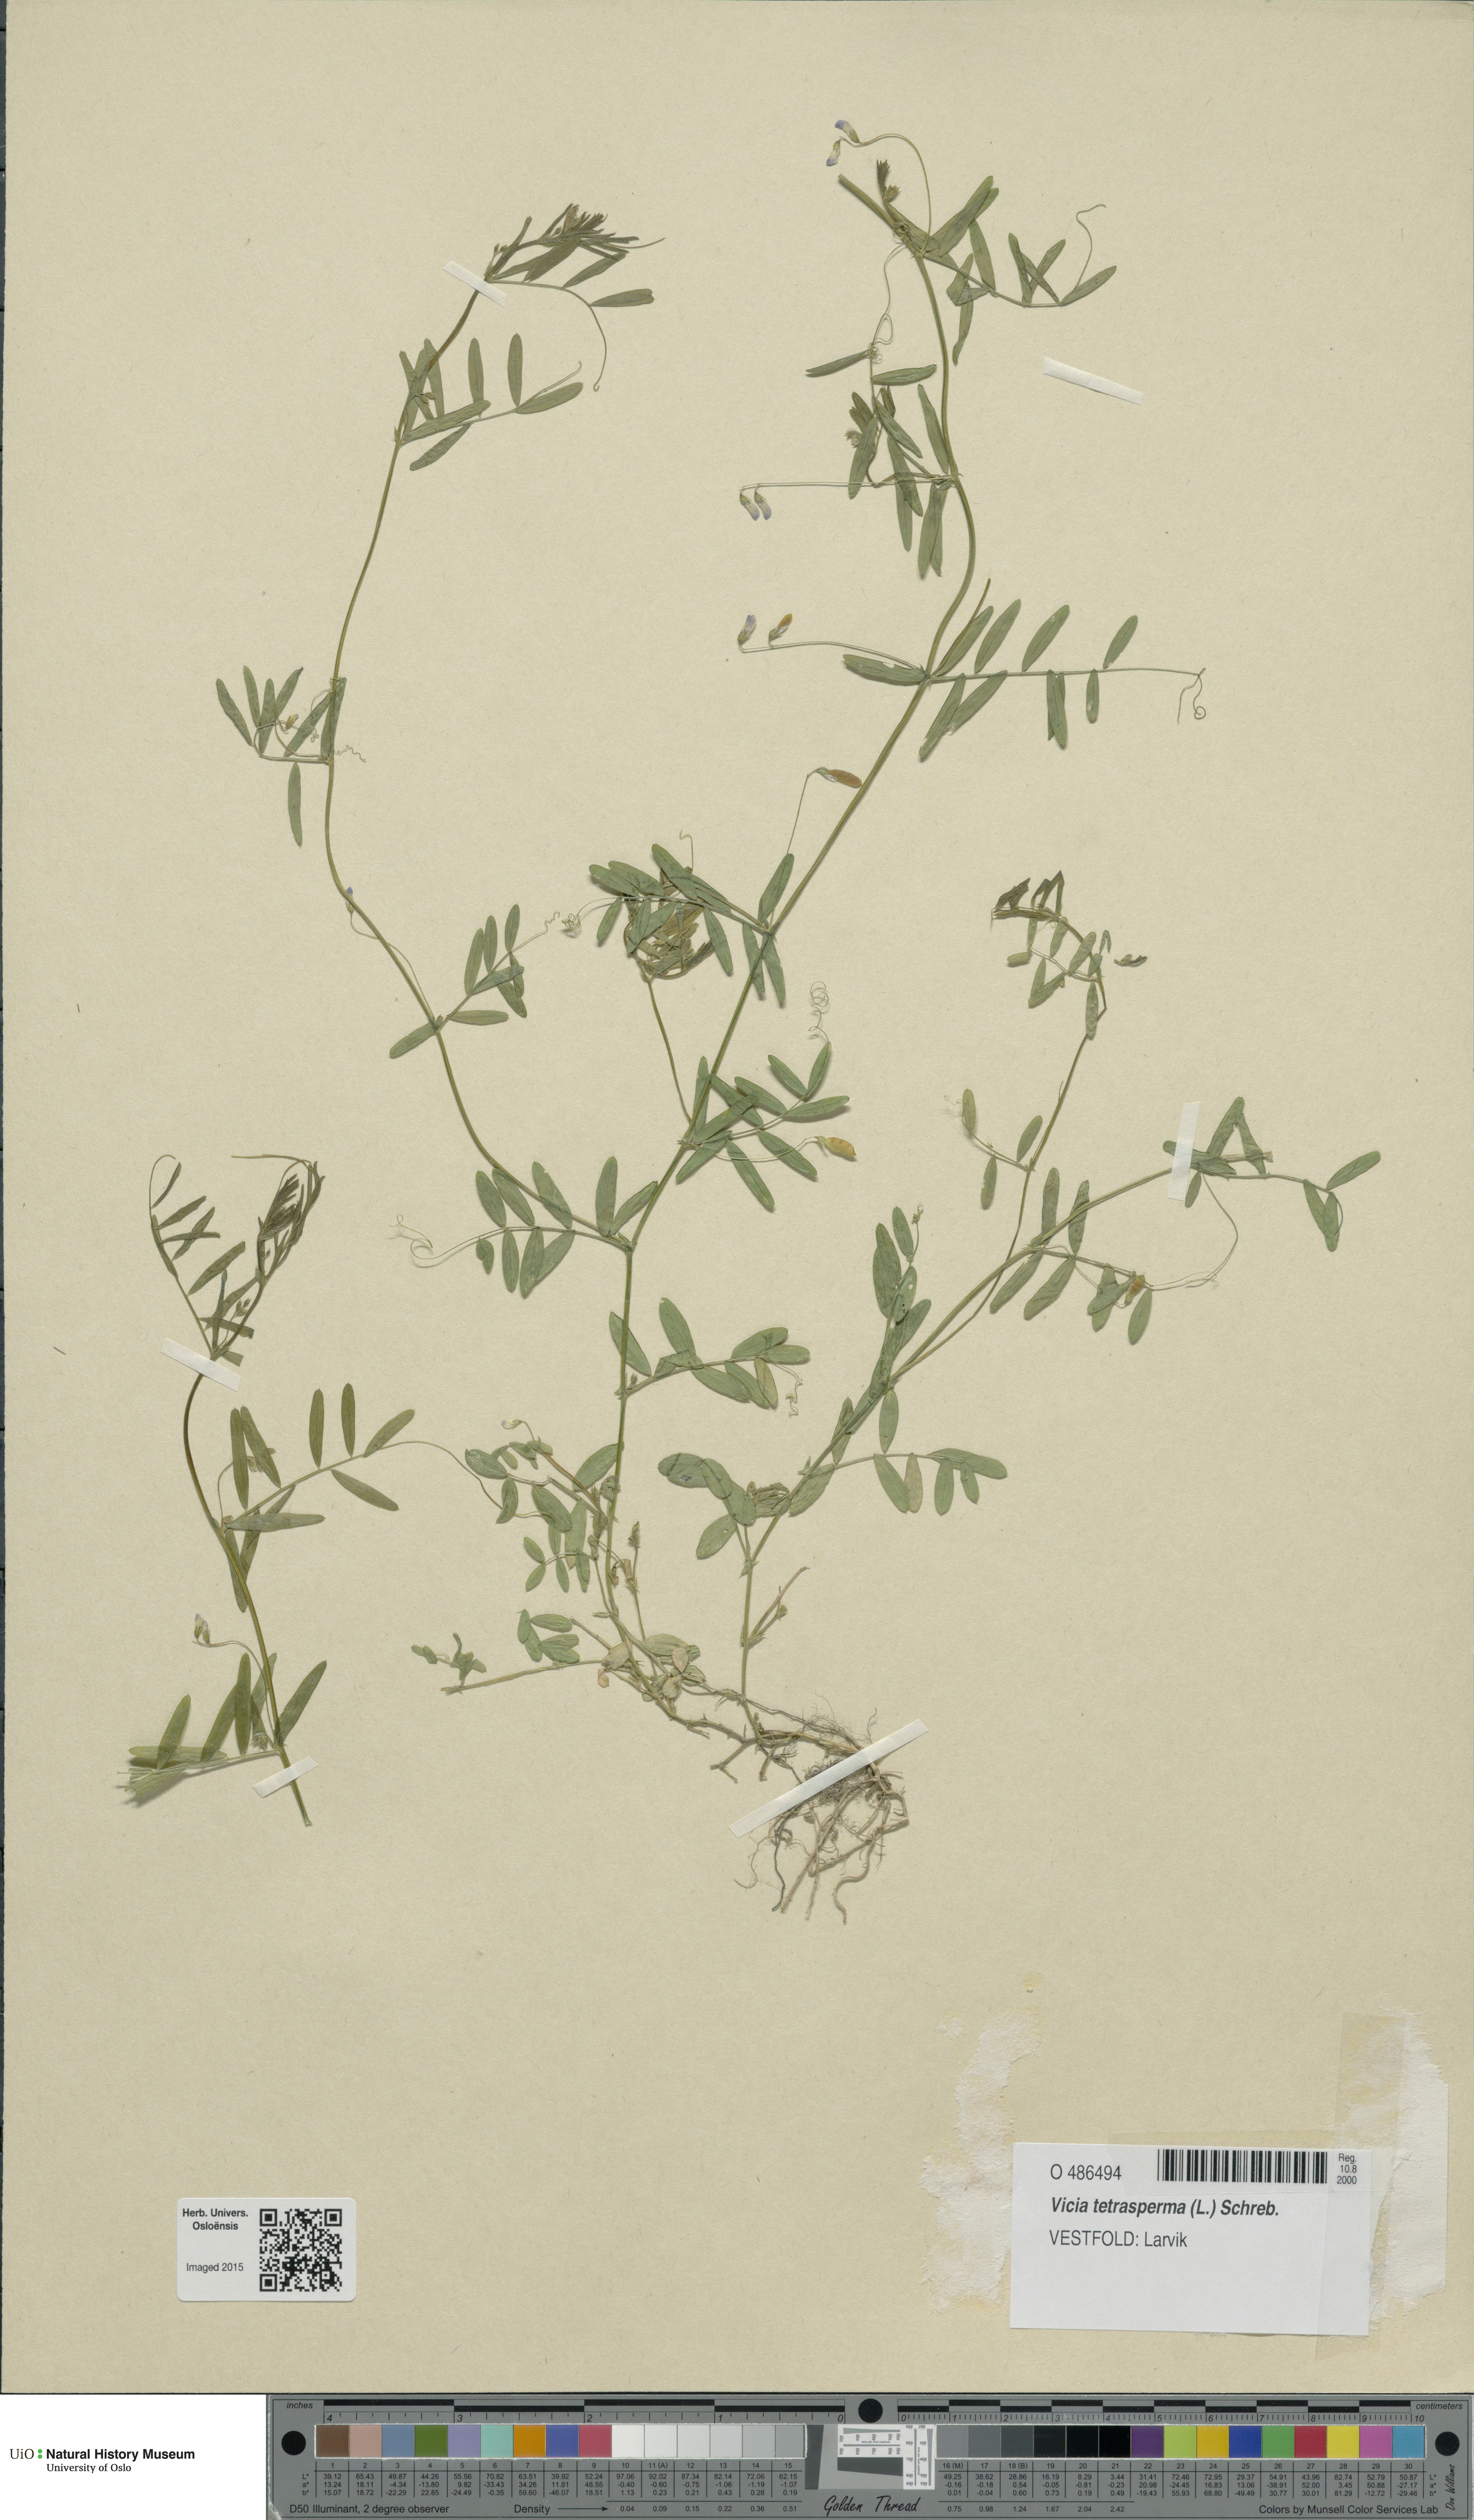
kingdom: Plantae
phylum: Tracheophyta
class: Magnoliopsida
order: Fabales
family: Fabaceae
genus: Vicia
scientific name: Vicia tetrasperma
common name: Smooth tare
